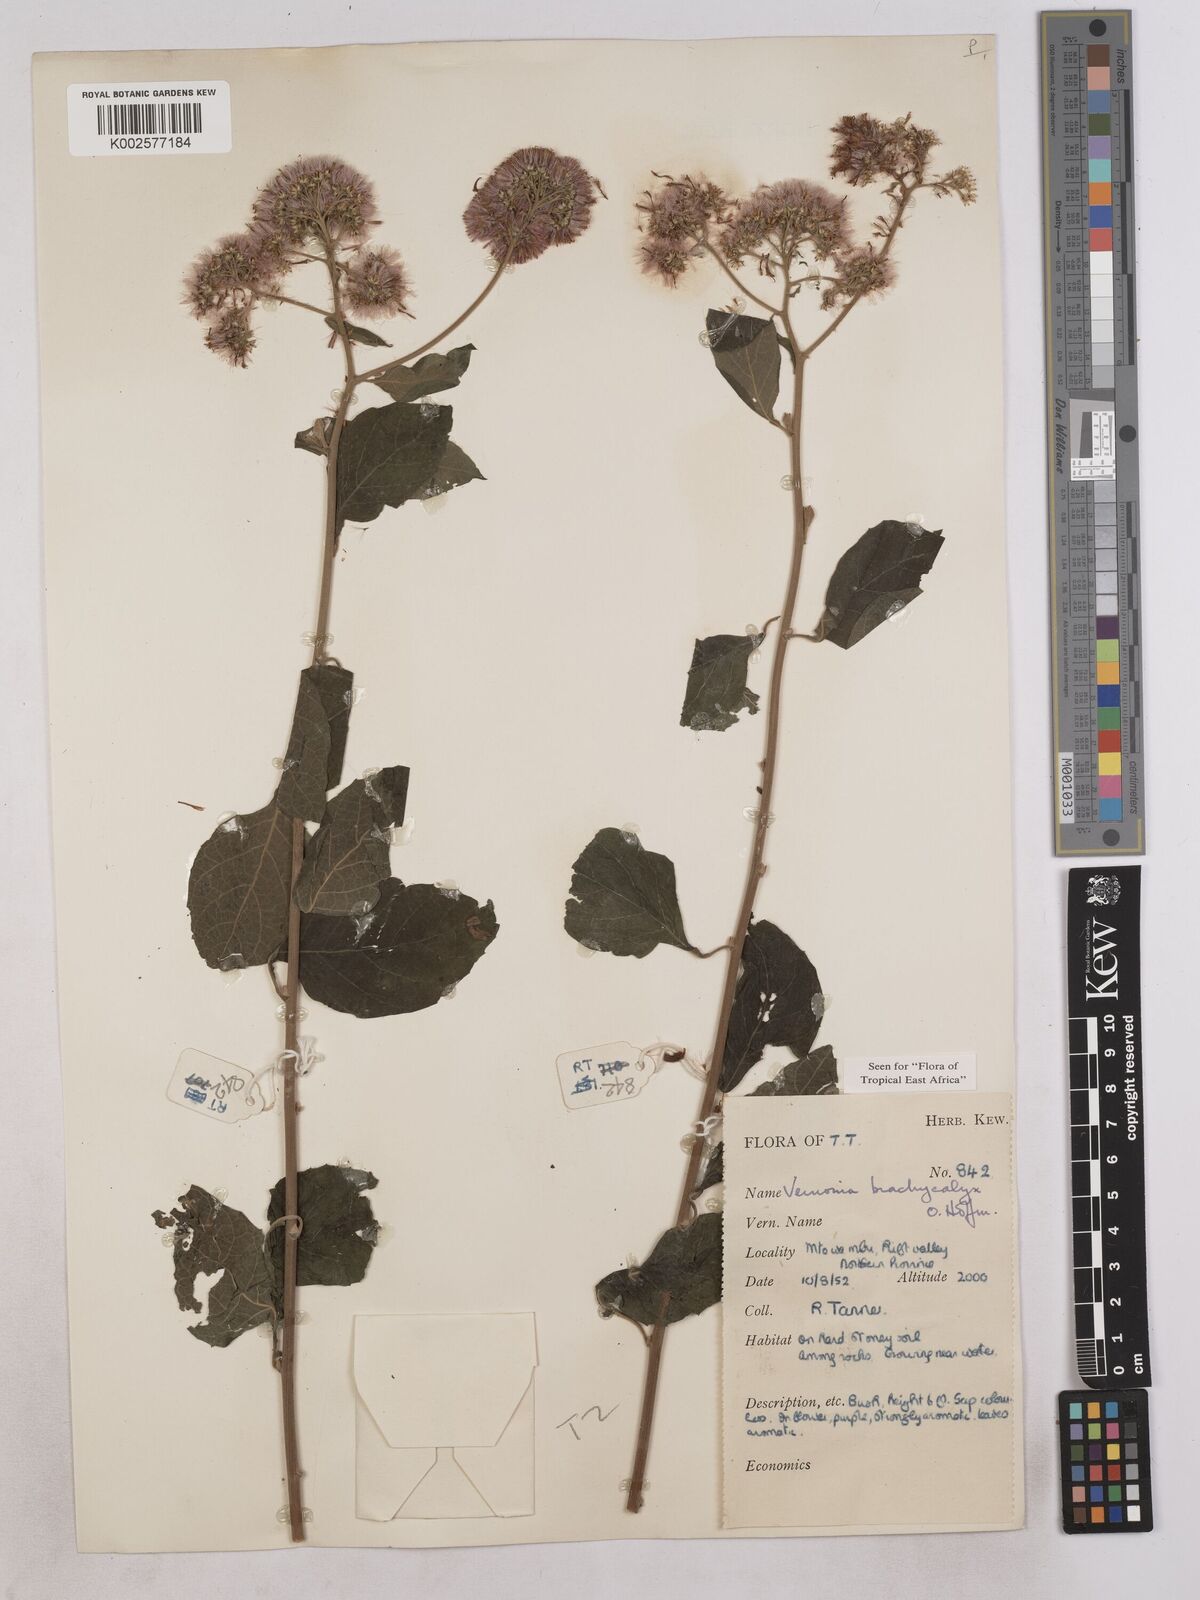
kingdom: Plantae
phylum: Tracheophyta
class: Magnoliopsida
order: Asterales
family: Asteraceae
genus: Hoffmannanthus
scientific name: Hoffmannanthus abbotianus
